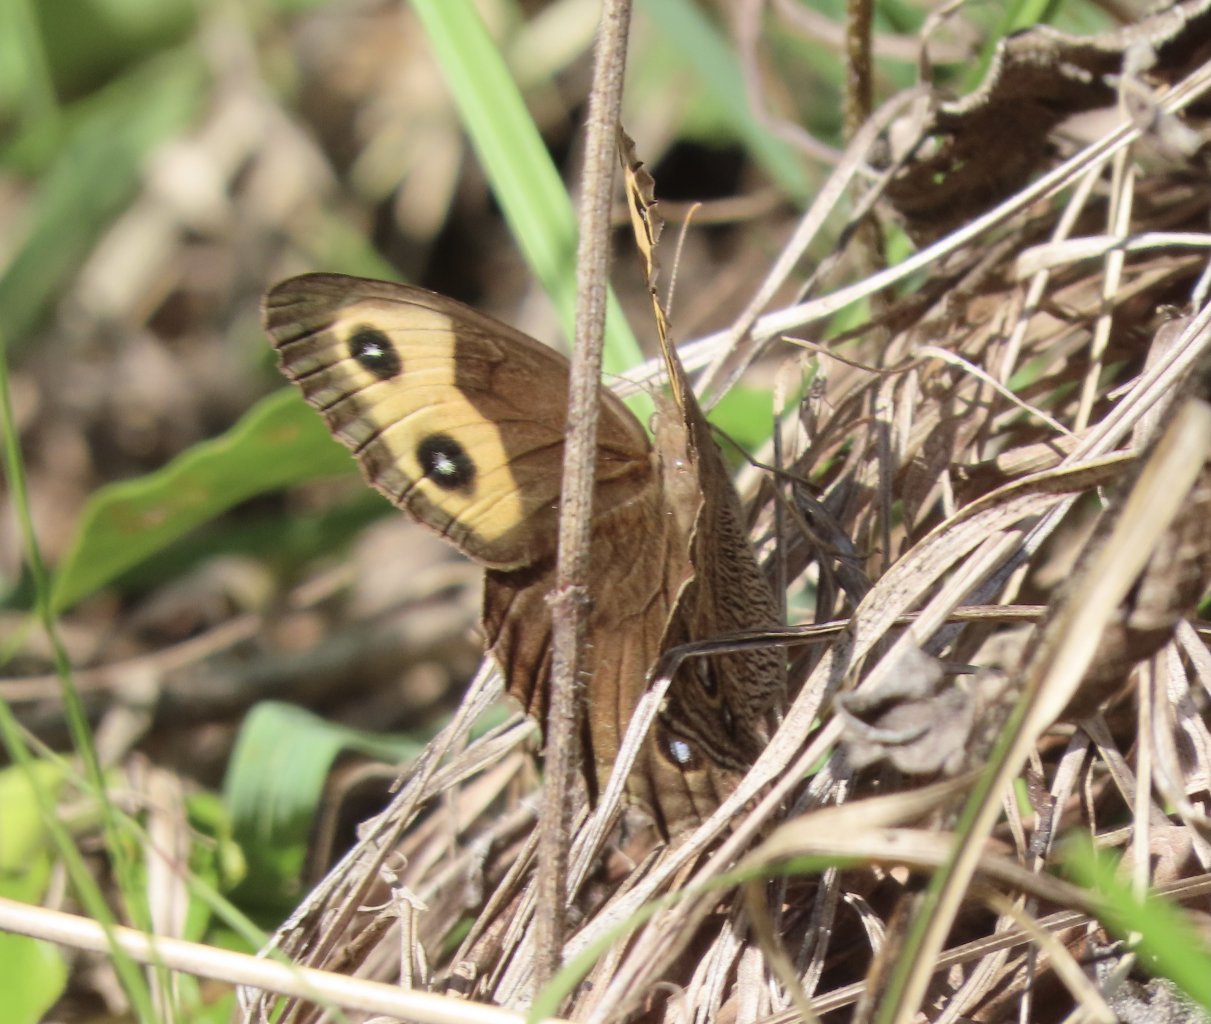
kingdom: Animalia
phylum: Arthropoda
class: Insecta
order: Lepidoptera
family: Nymphalidae
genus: Cercyonis
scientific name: Cercyonis pegala
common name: Common Wood-Nymph
